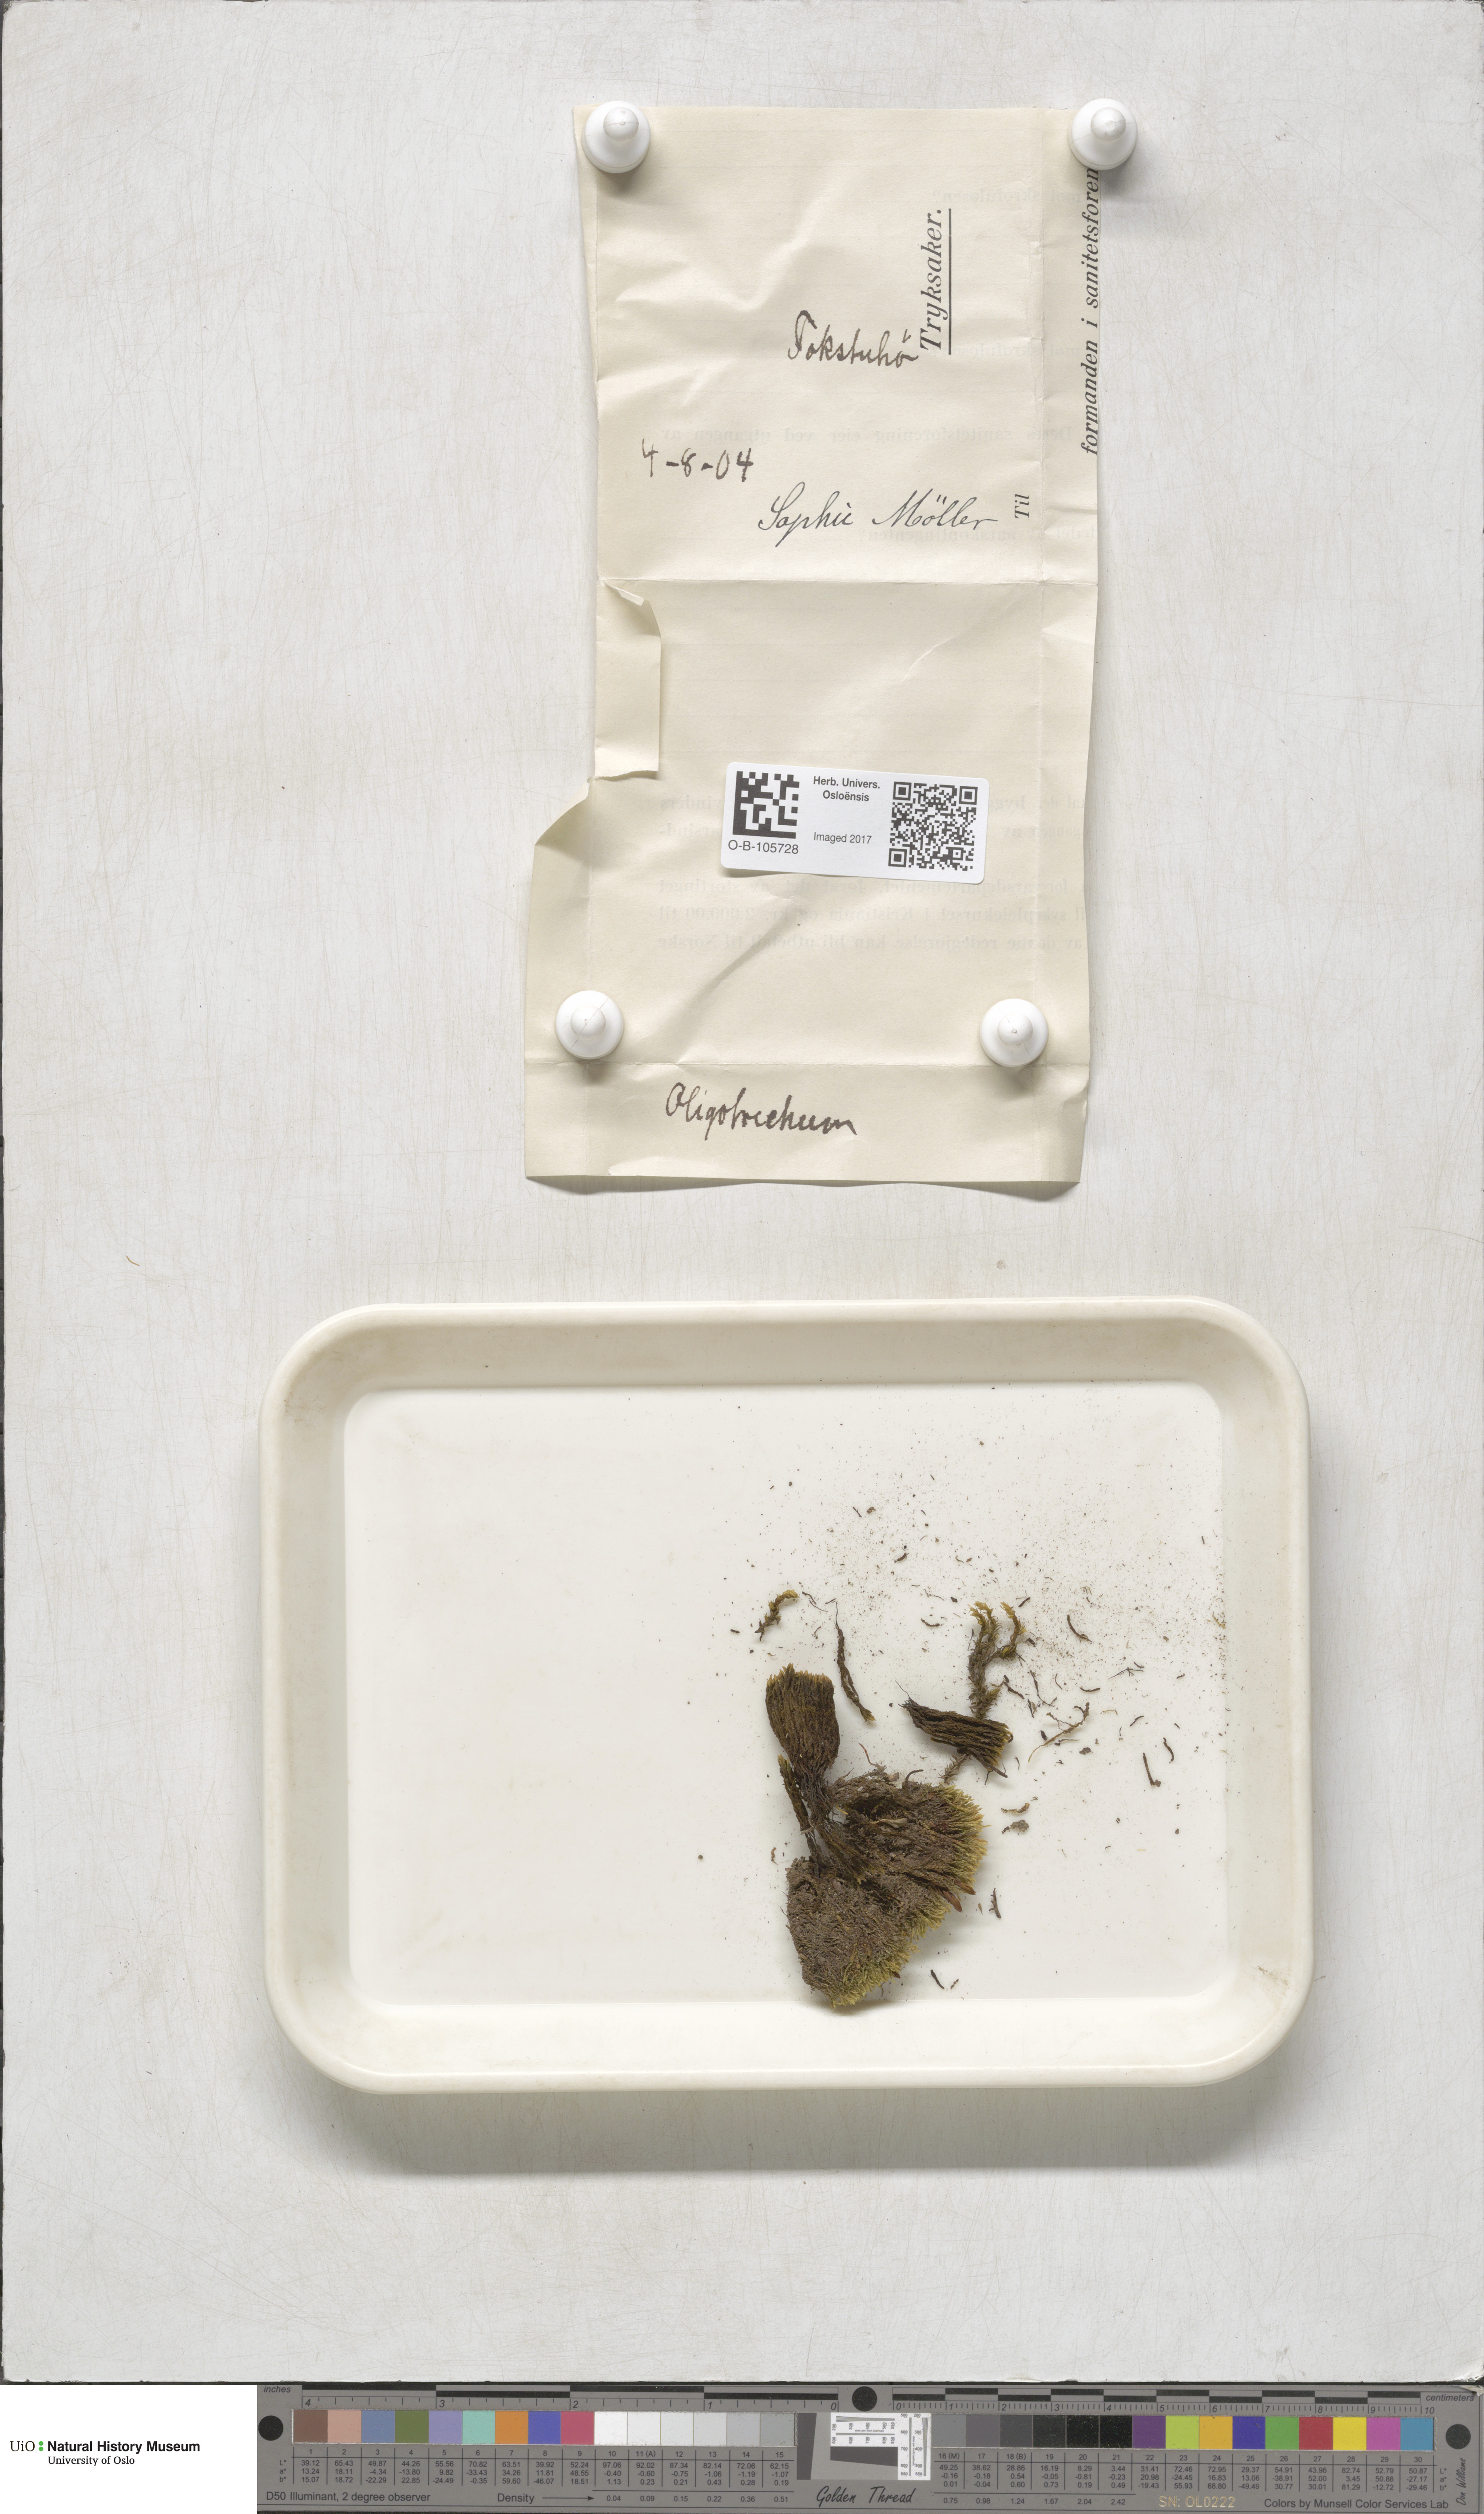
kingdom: Plantae
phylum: Bryophyta
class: Polytrichopsida
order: Polytrichales
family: Polytrichaceae
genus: Oligotrichum
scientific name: Oligotrichum hercynicum
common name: Hercynian hair moss
